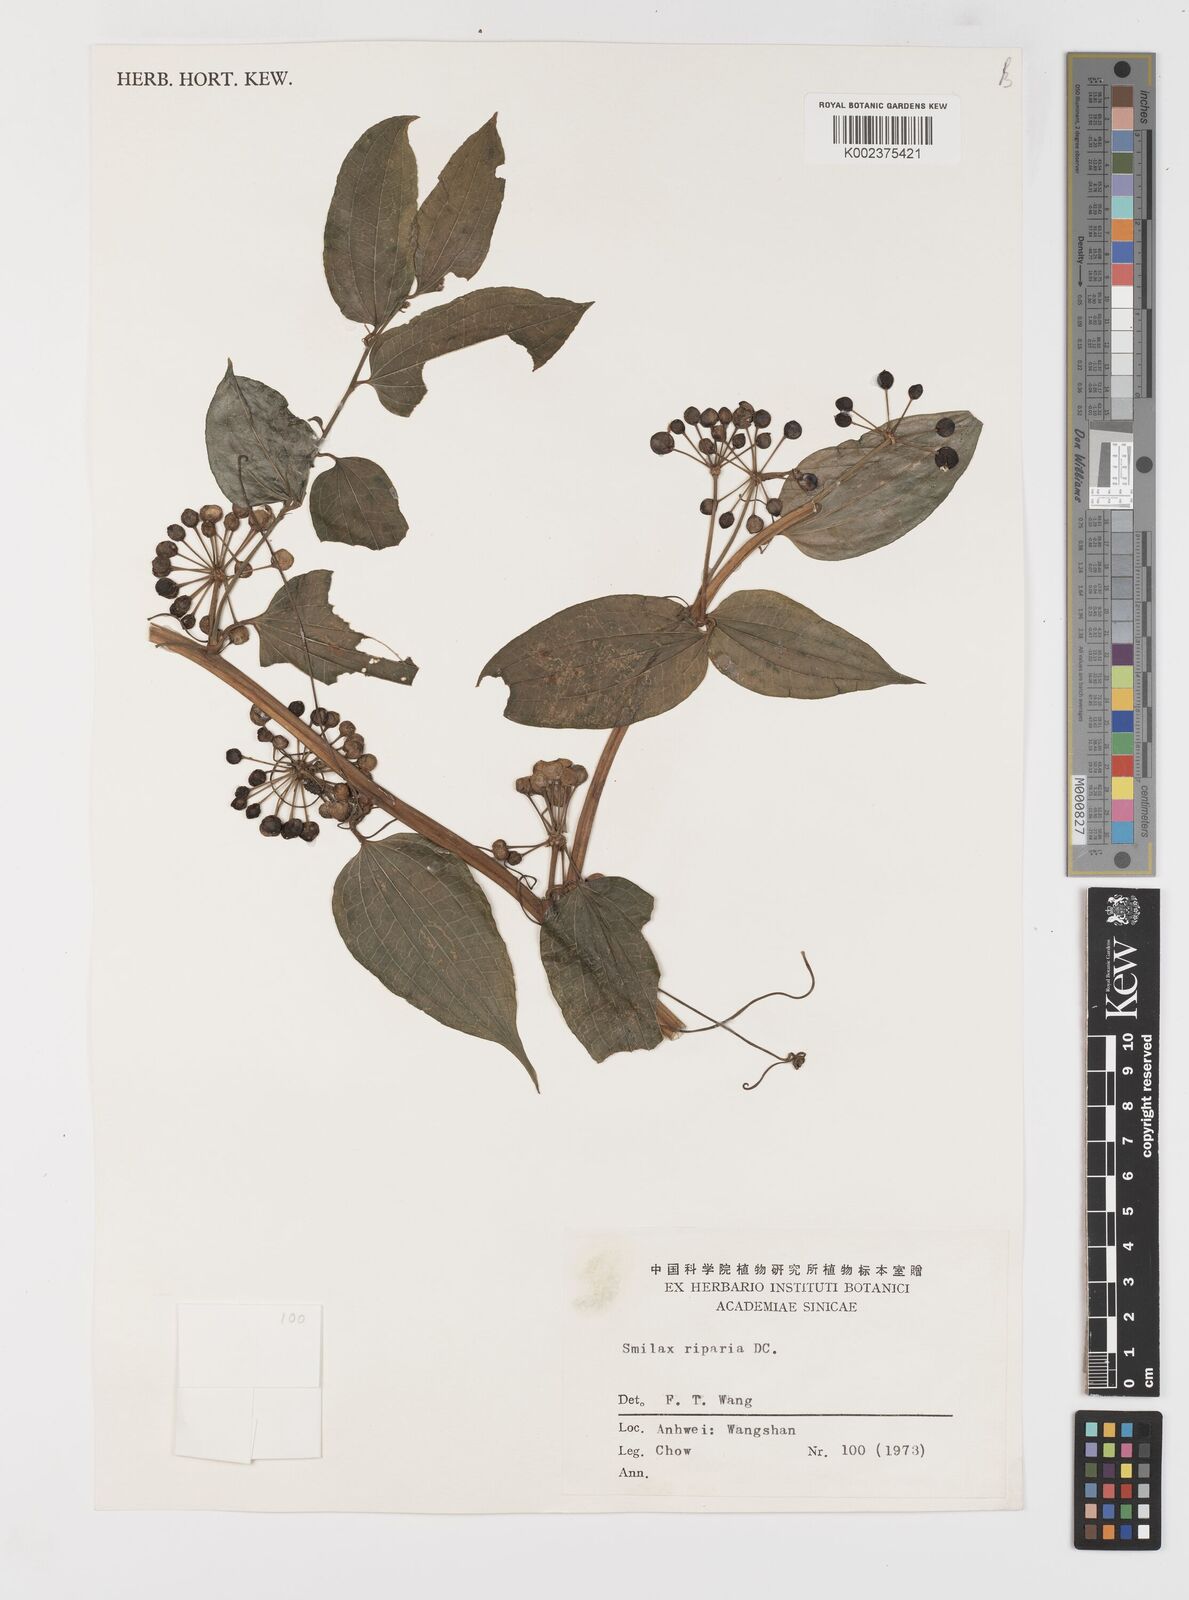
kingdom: Plantae
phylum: Tracheophyta
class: Liliopsida
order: Liliales
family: Smilacaceae
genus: Smilax
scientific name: Smilax riparia
